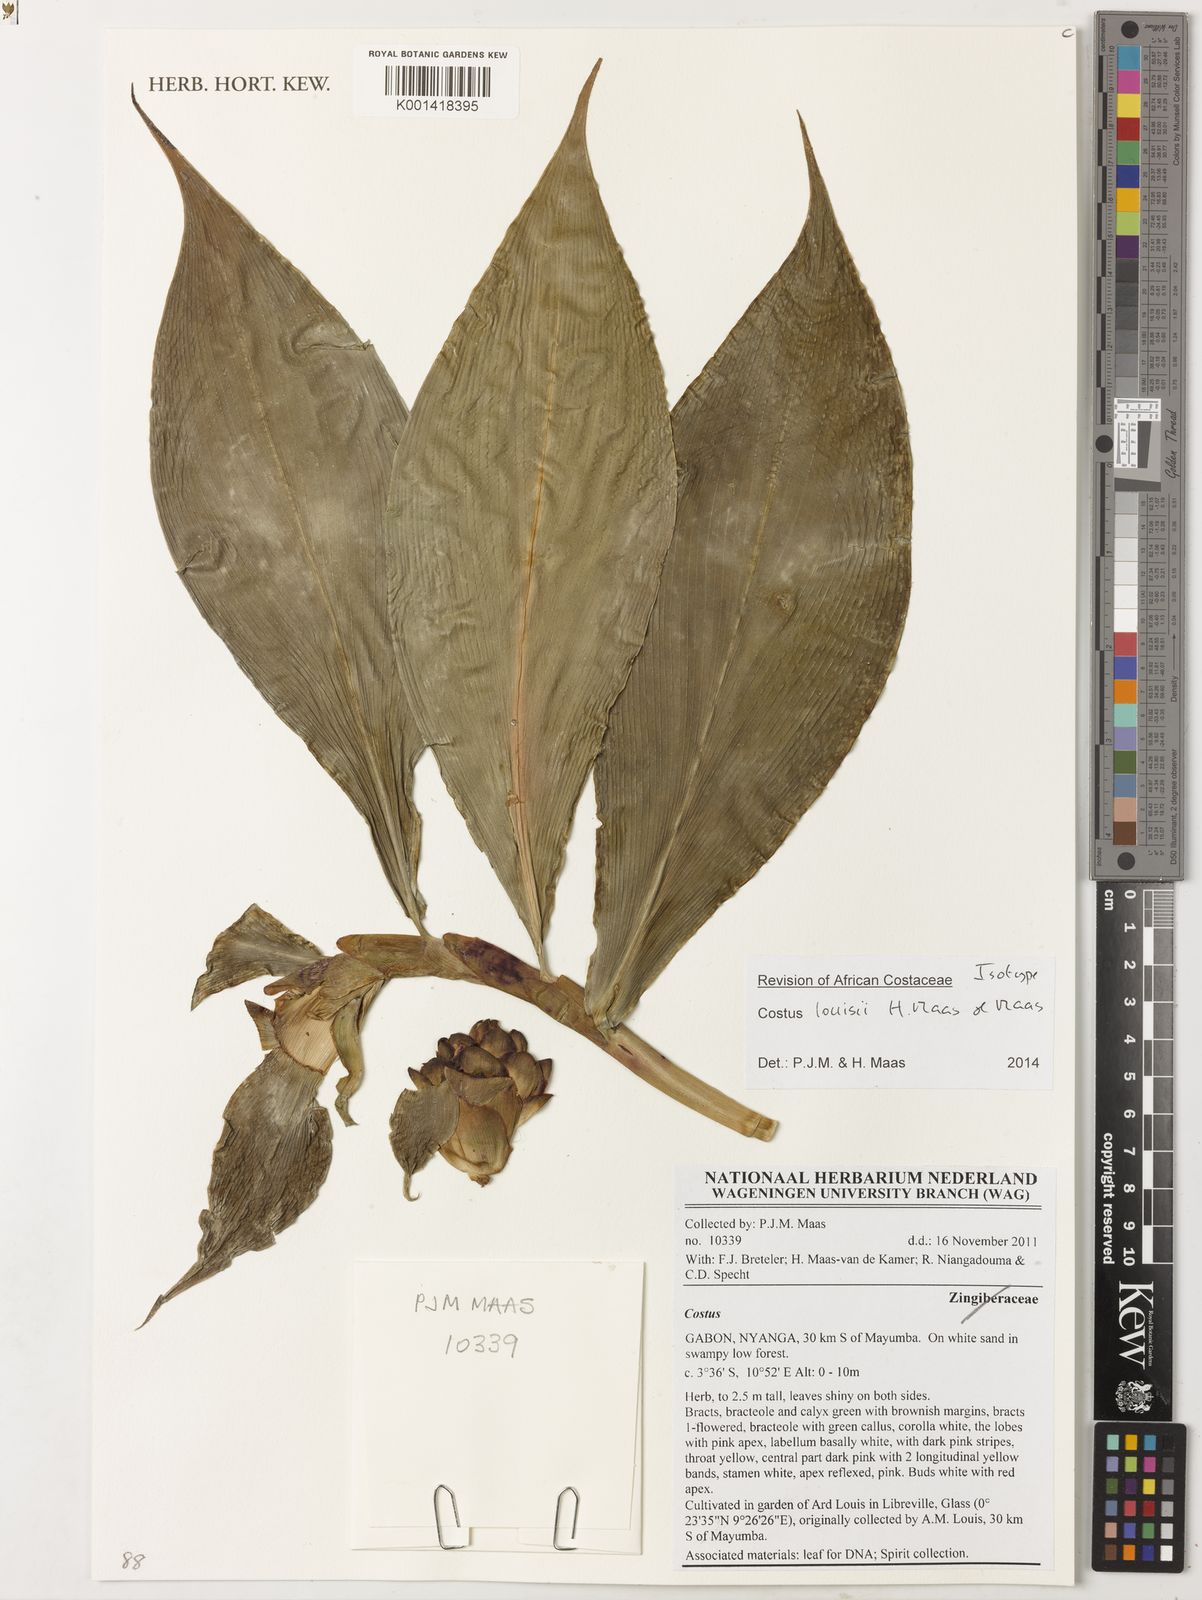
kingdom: Plantae
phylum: Tracheophyta
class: Liliopsida
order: Zingiberales
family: Costaceae
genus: Costus
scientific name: Costus louisii
